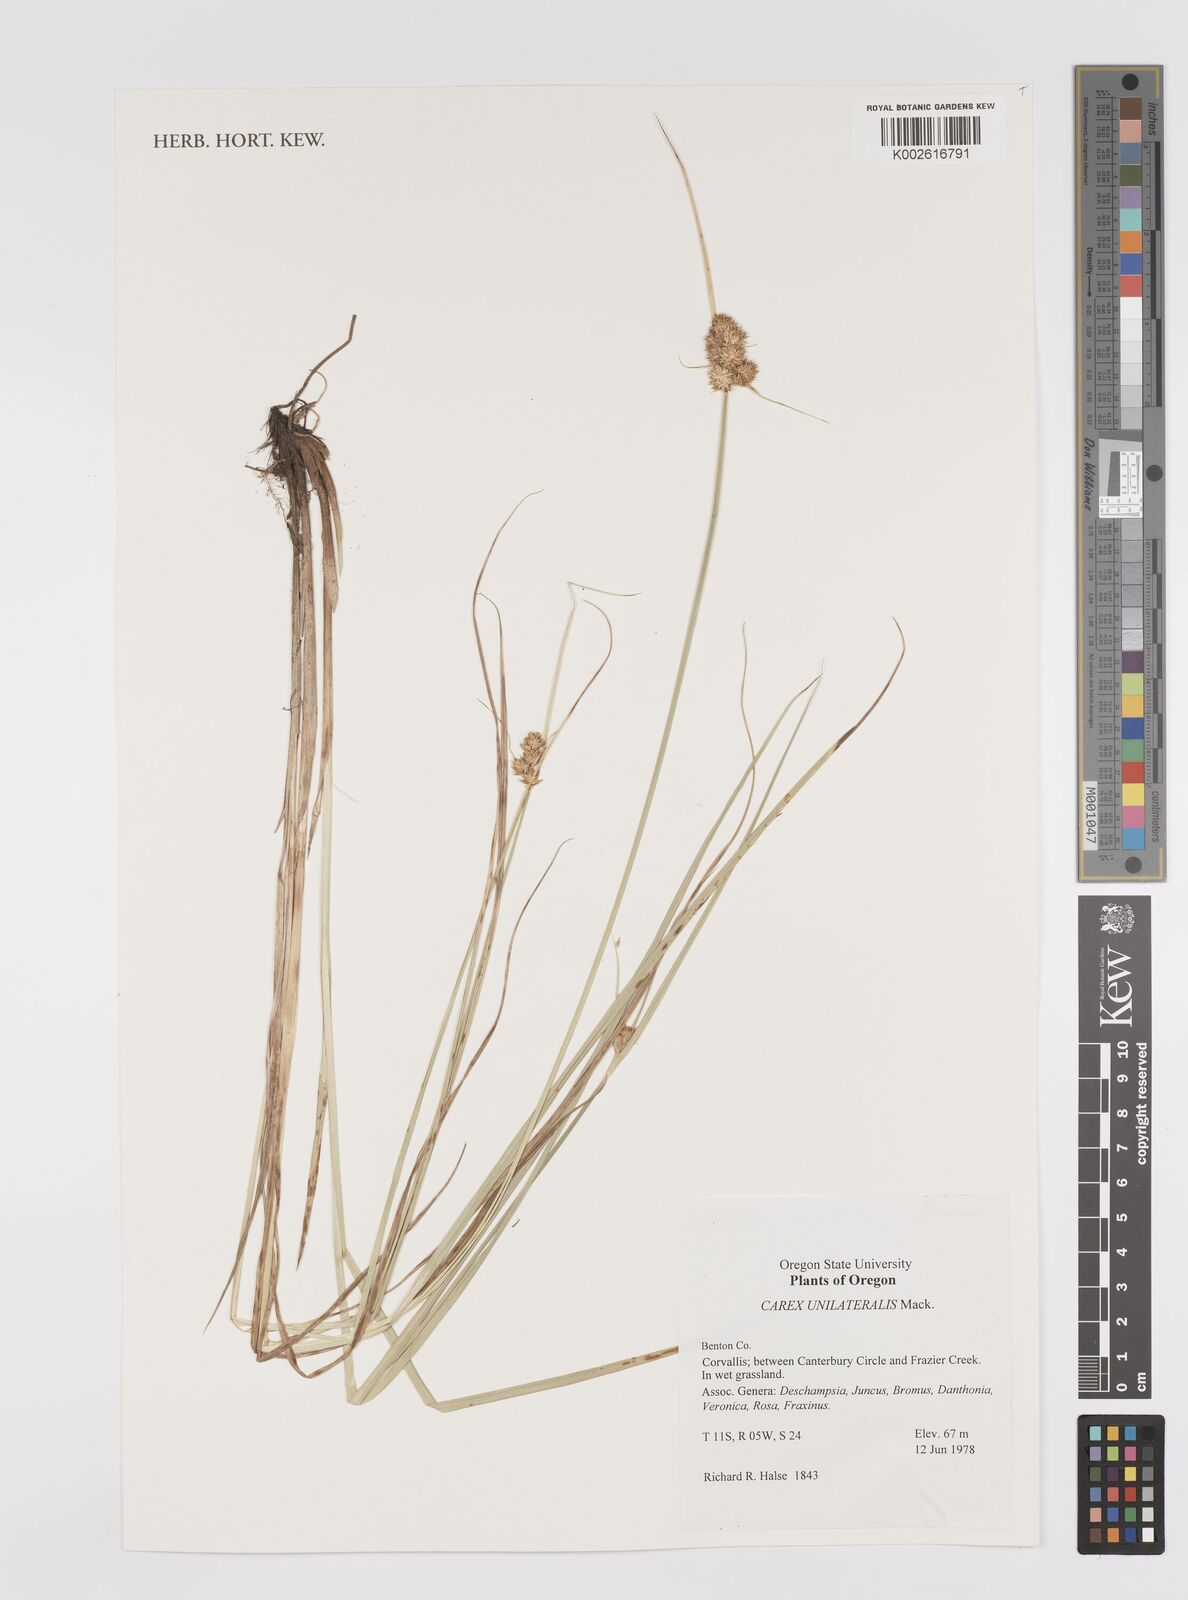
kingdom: Plantae
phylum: Tracheophyta
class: Liliopsida
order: Poales
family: Cyperaceae
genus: Carex
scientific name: Carex unilateralis
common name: Lateral sedge
